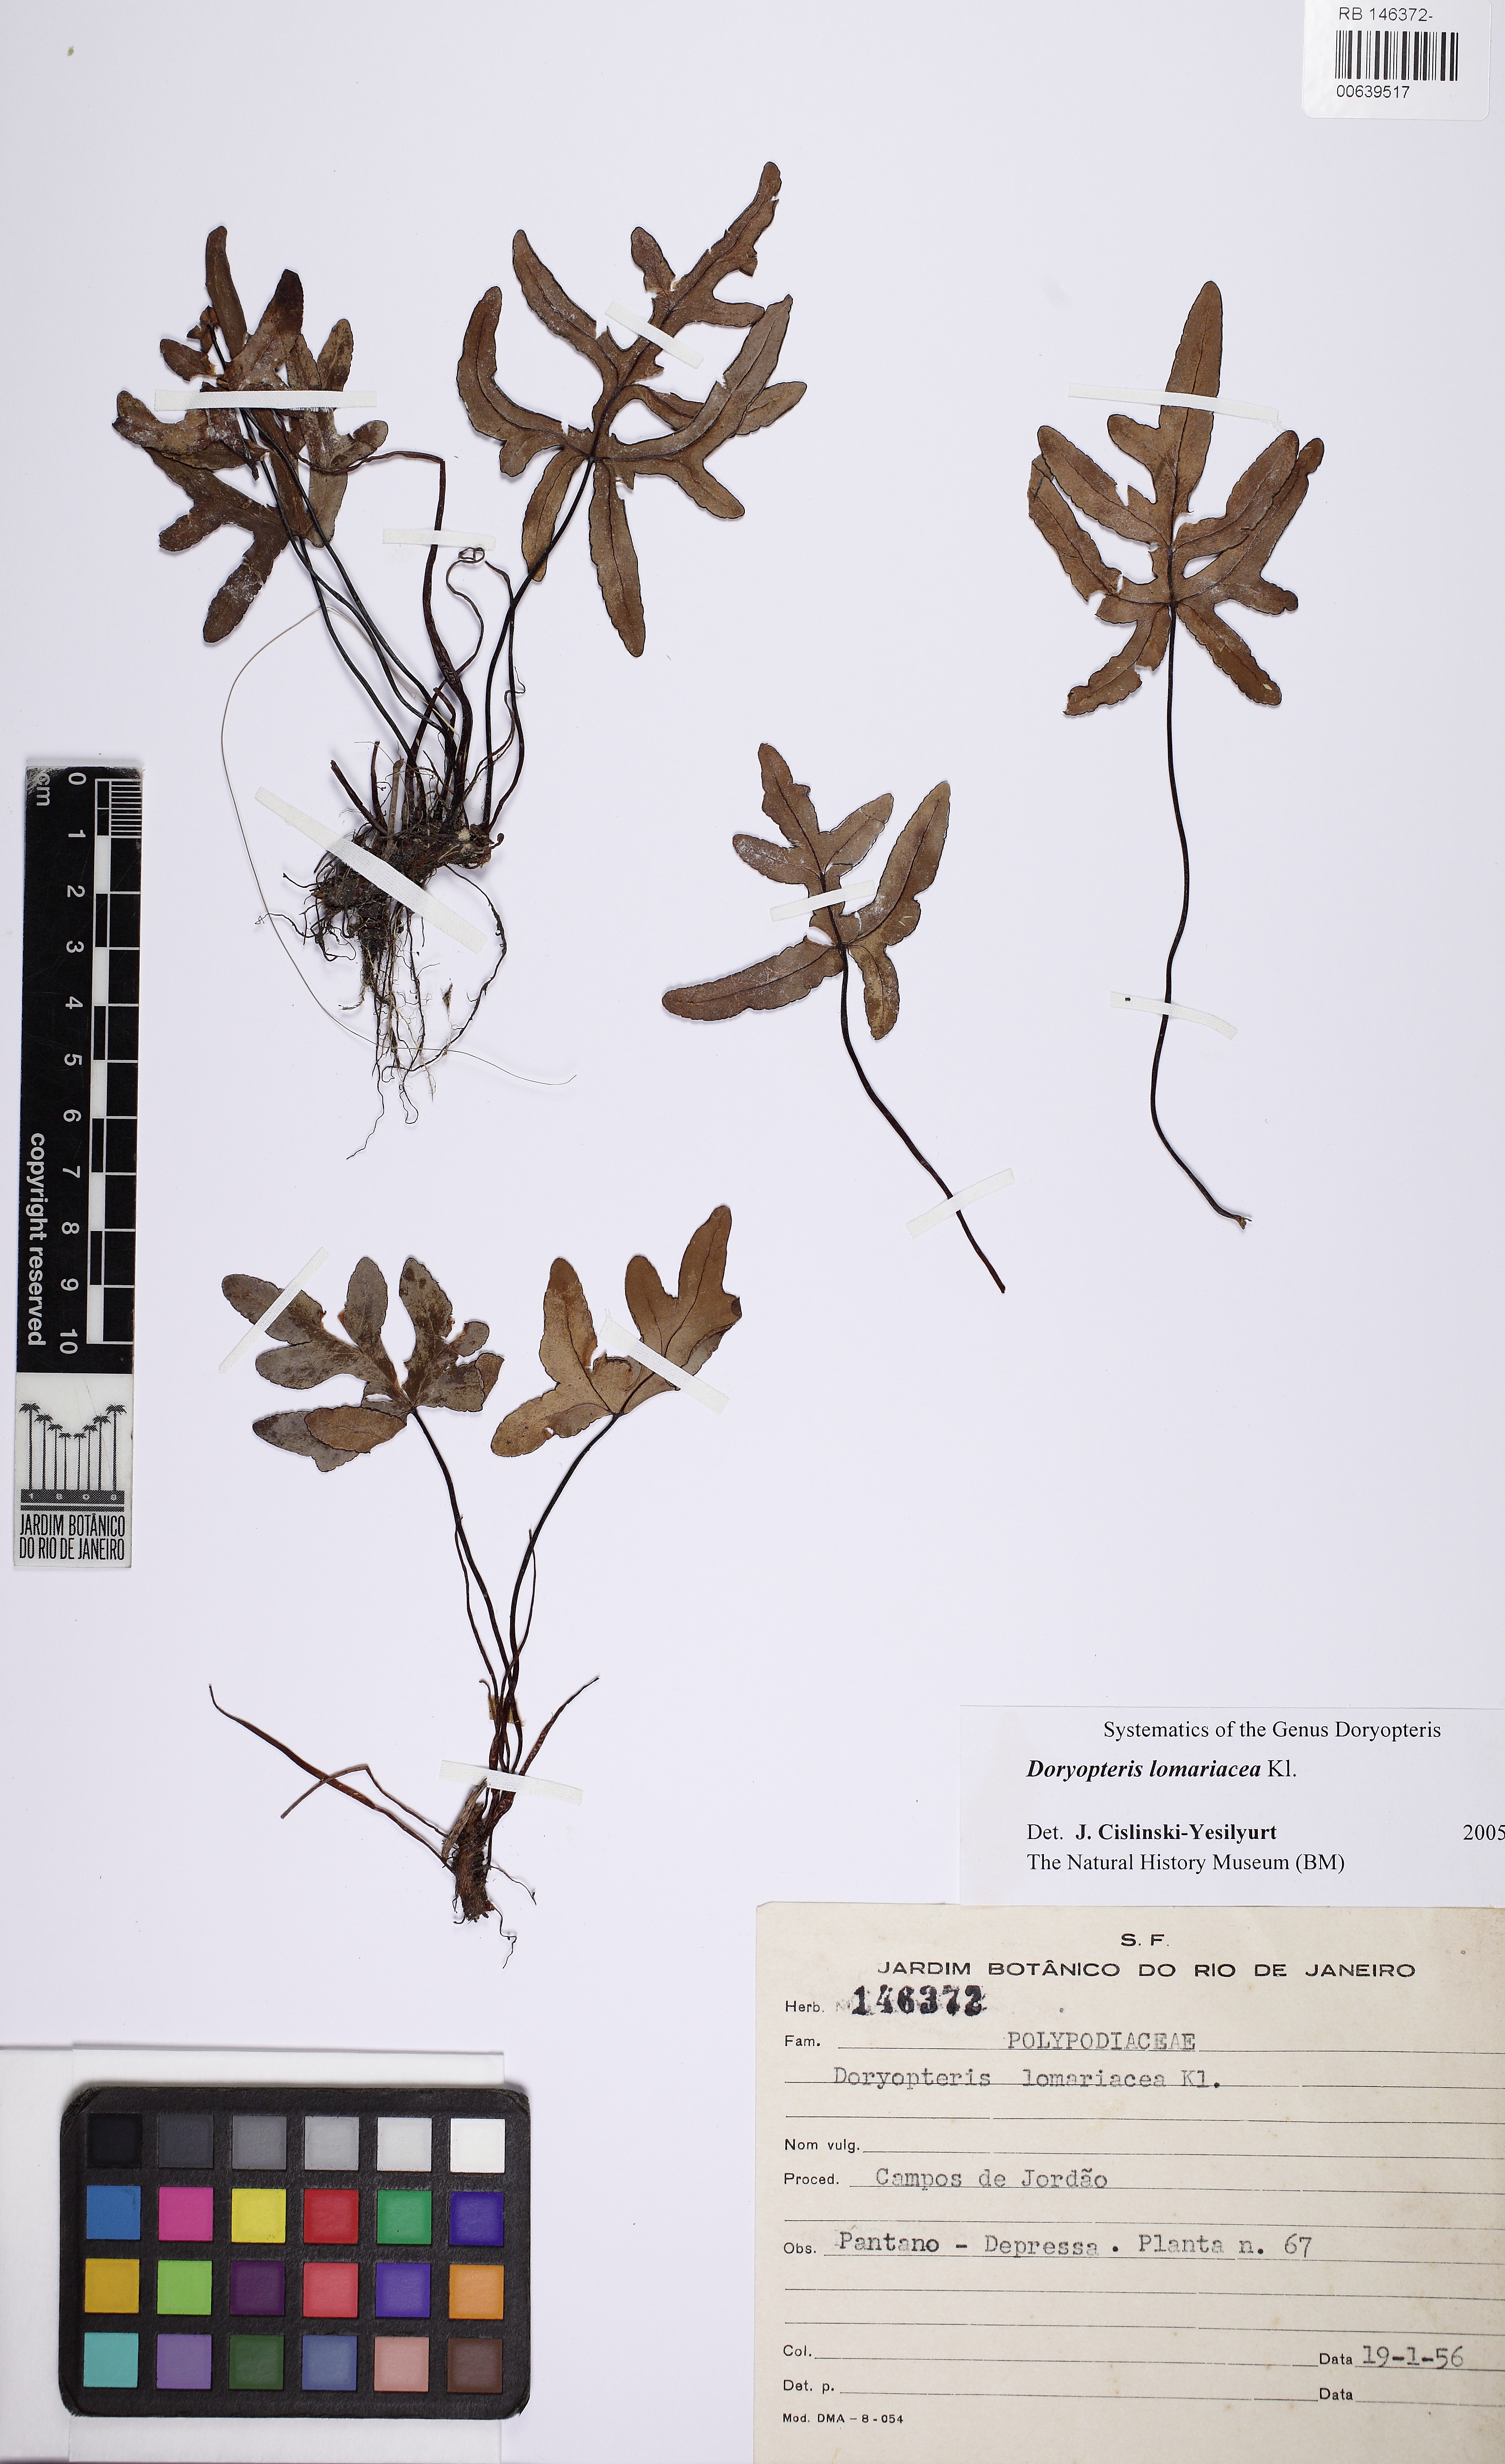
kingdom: Plantae
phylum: Tracheophyta
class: Polypodiopsida
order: Polypodiales
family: Pteridaceae
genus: Lytoneuron
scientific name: Lytoneuron lomariaceum
